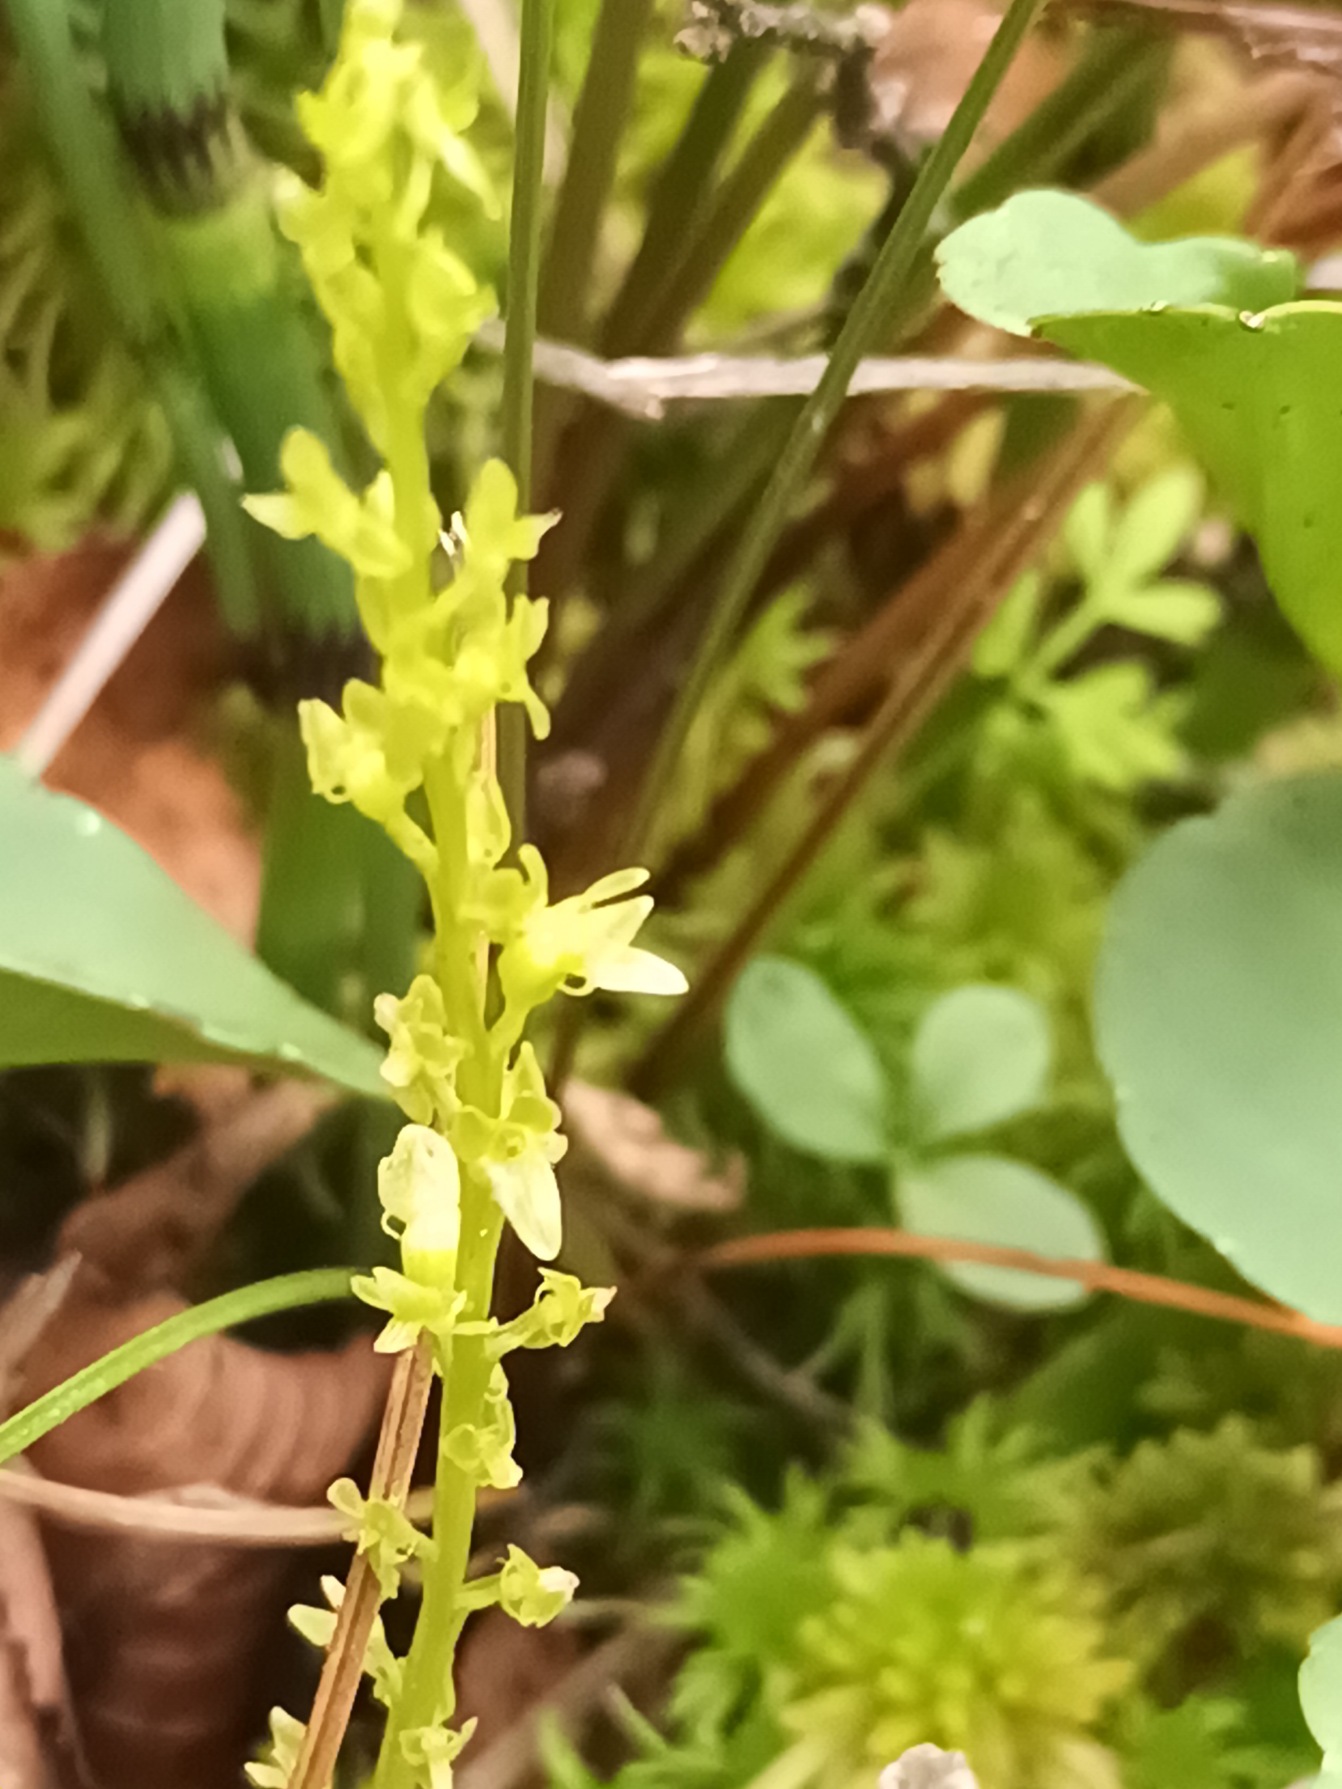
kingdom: Plantae
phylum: Tracheophyta
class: Liliopsida
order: Asparagales
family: Orchidaceae
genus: Hammarbya
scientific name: Hammarbya paludosa
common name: Hjertelæbe
